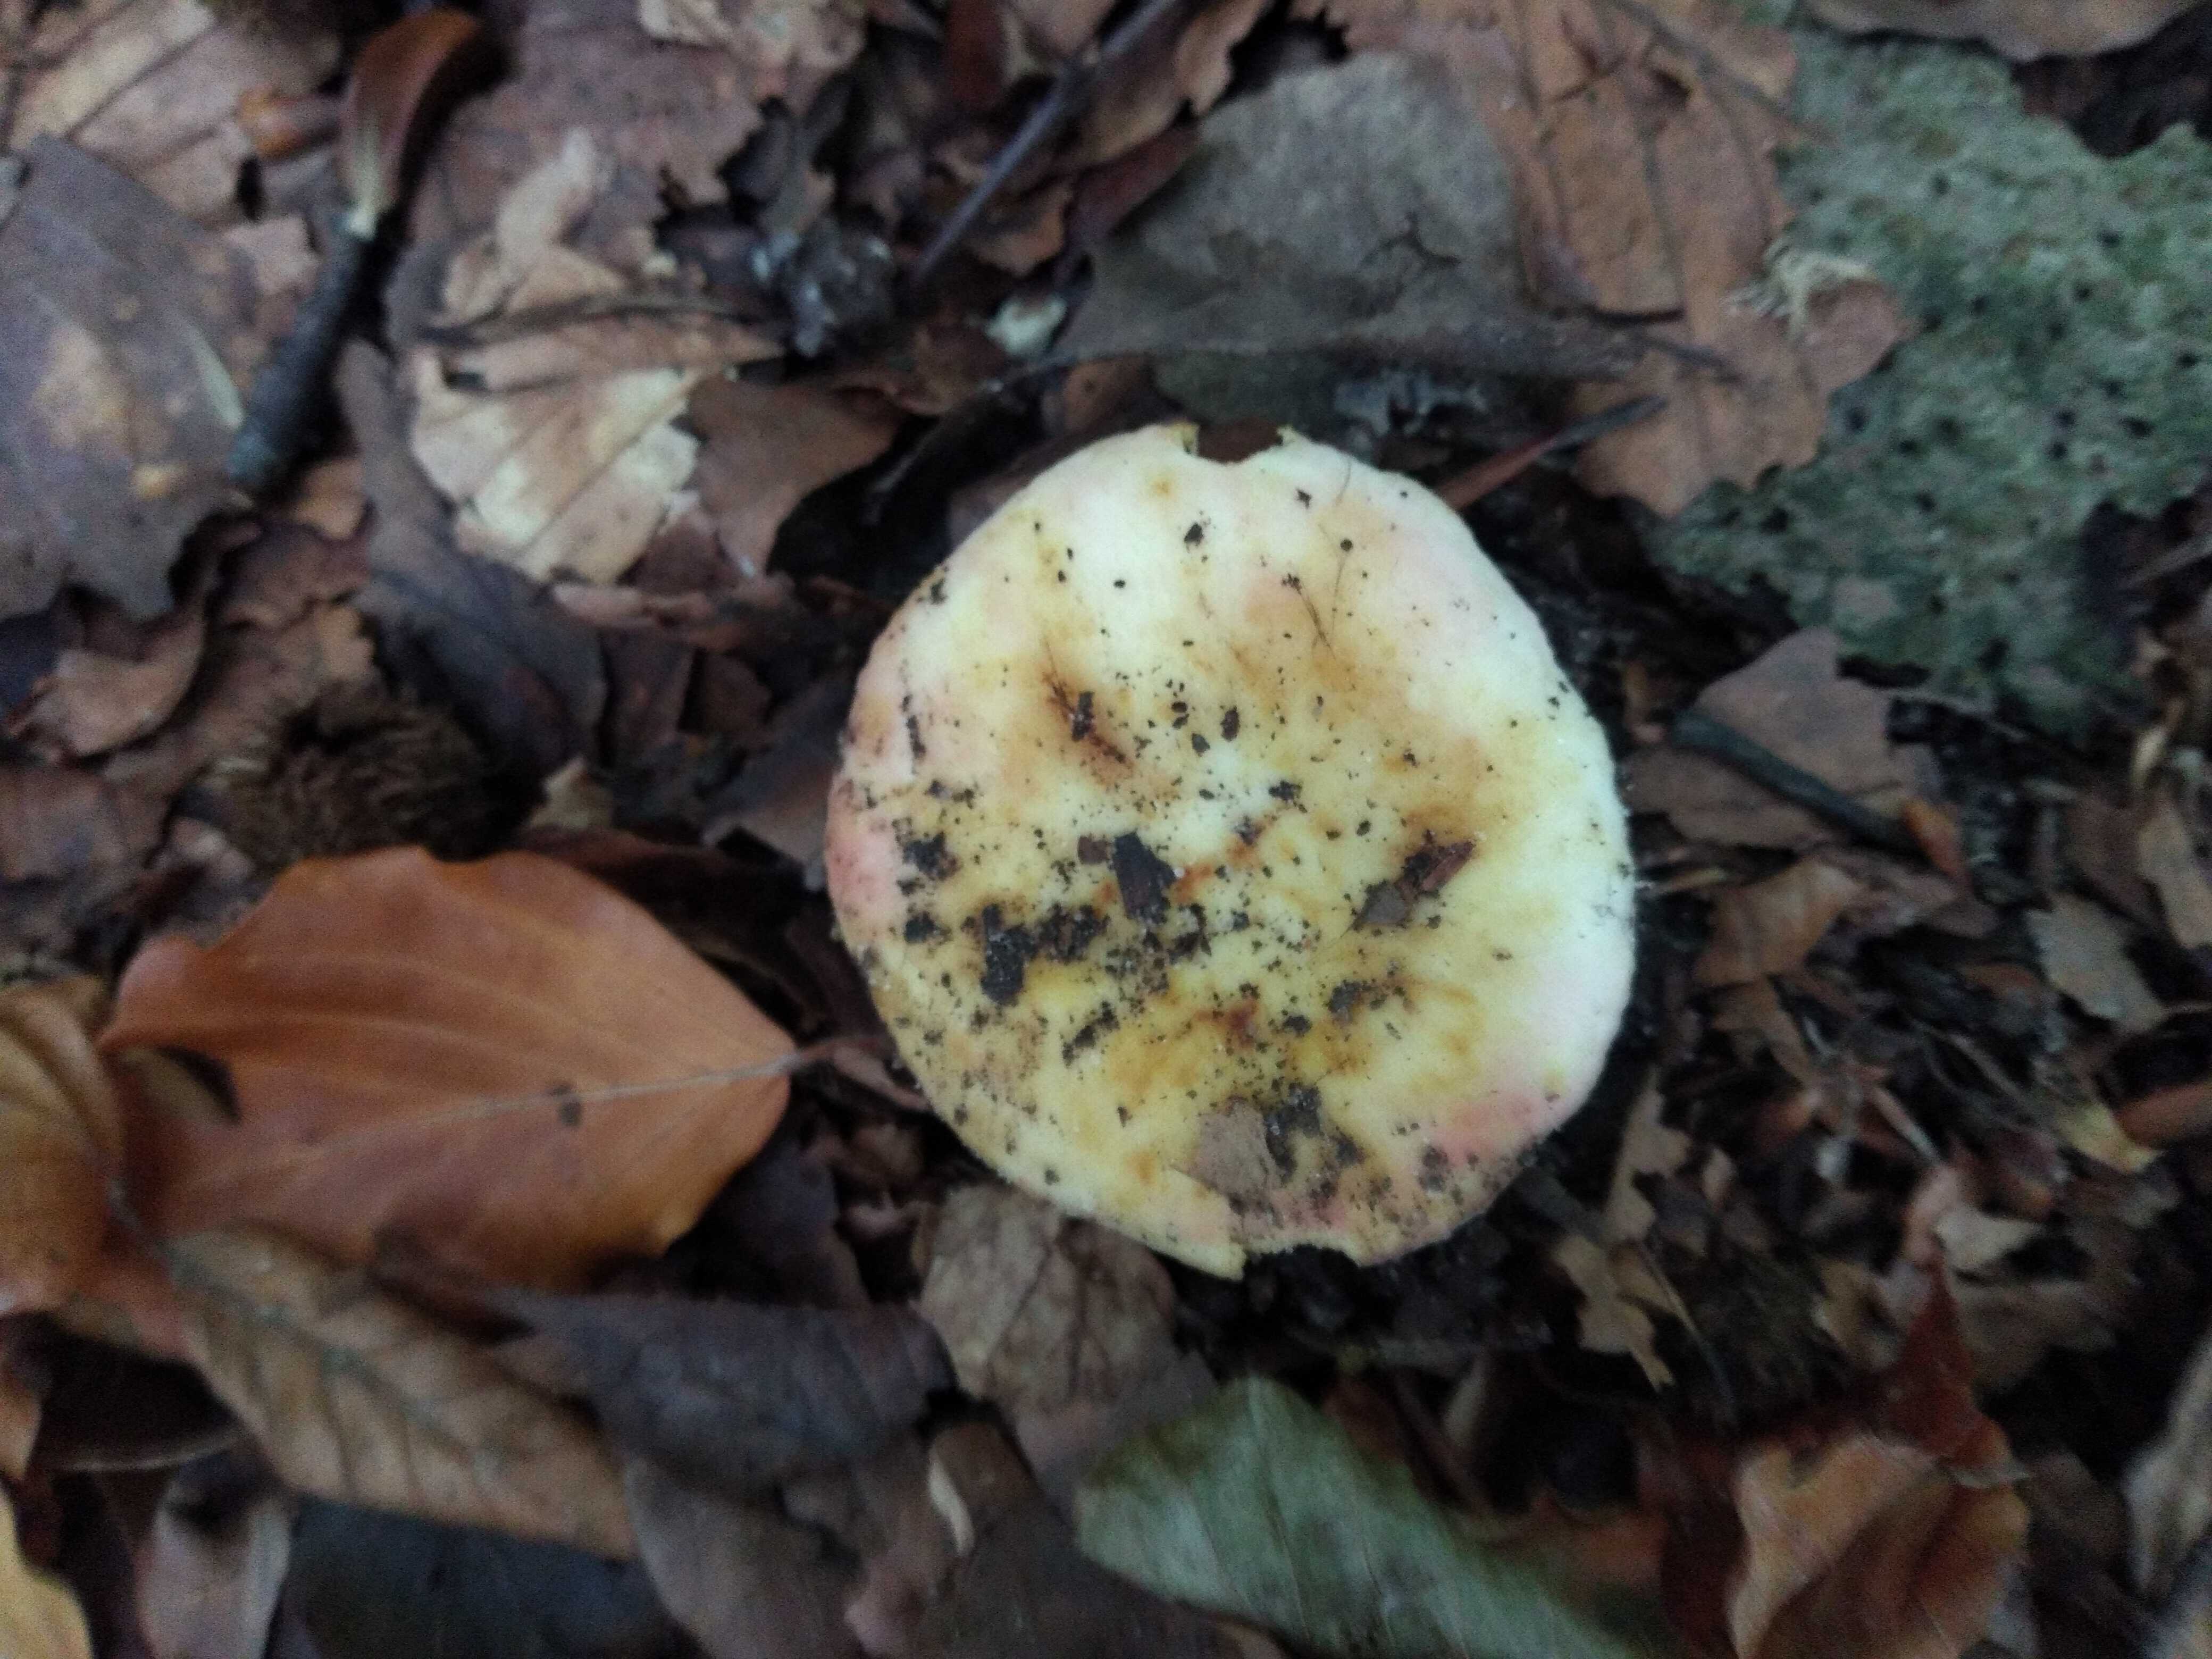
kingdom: Fungi
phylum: Basidiomycota
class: Agaricomycetes
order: Russulales
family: Russulaceae
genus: Russula
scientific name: Russula
